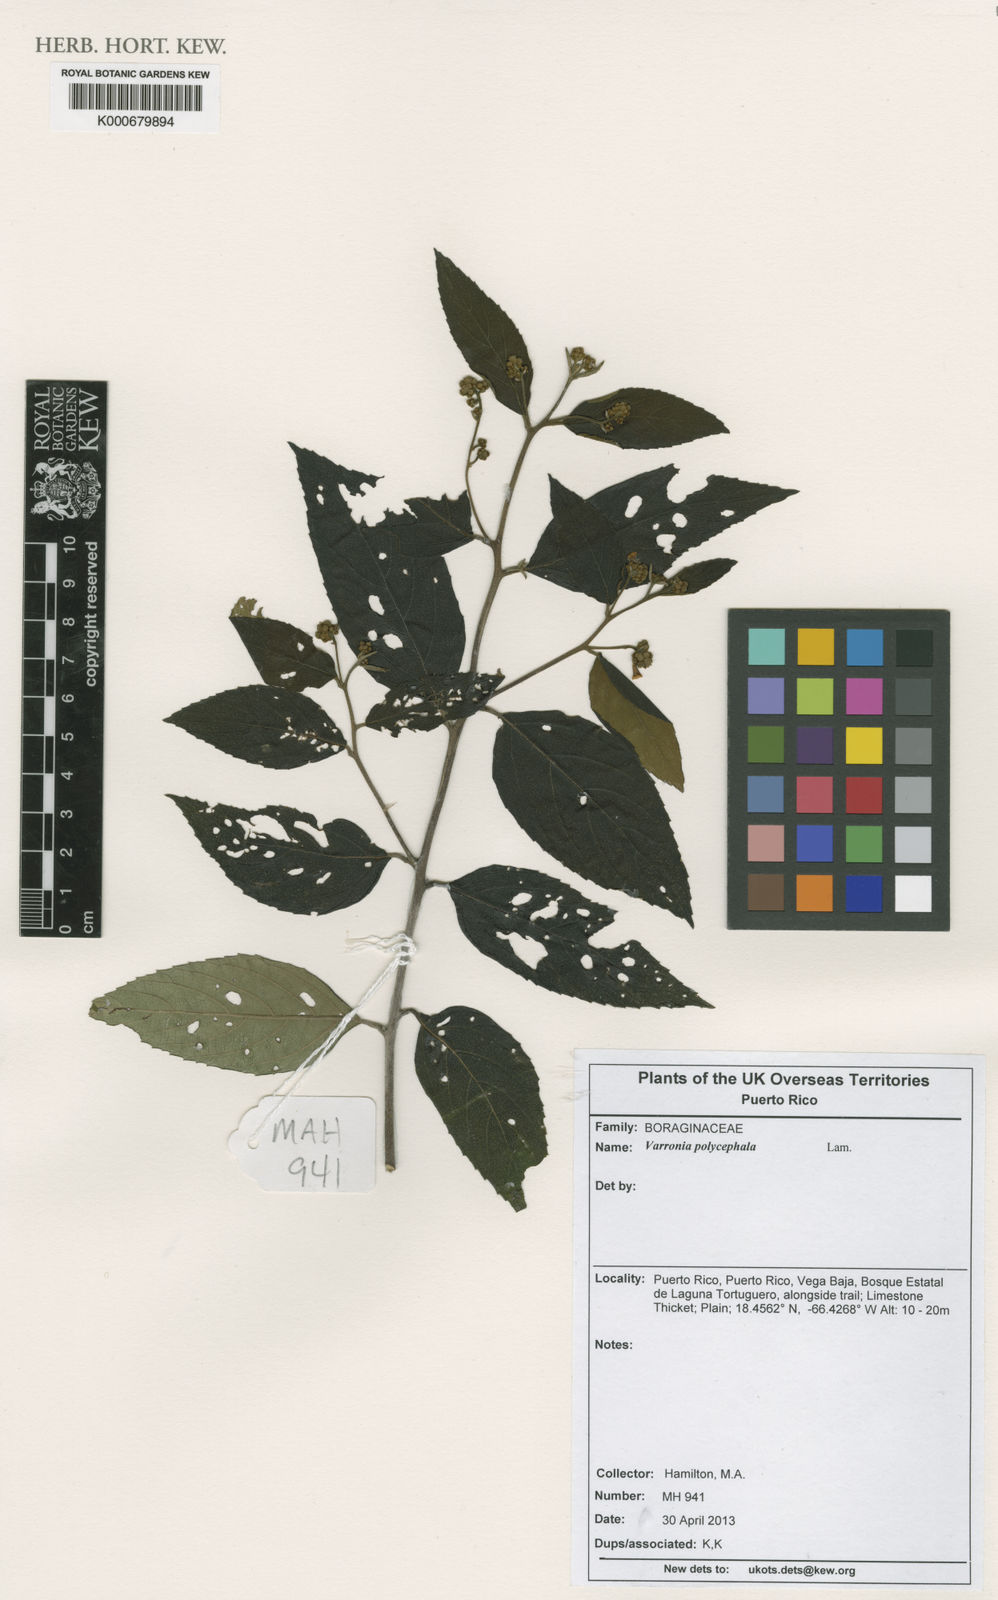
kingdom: Plantae
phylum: Tracheophyta
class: Magnoliopsida
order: Boraginales
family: Cordiaceae
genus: Varronia
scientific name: Varronia polycephala
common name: Black-sage
